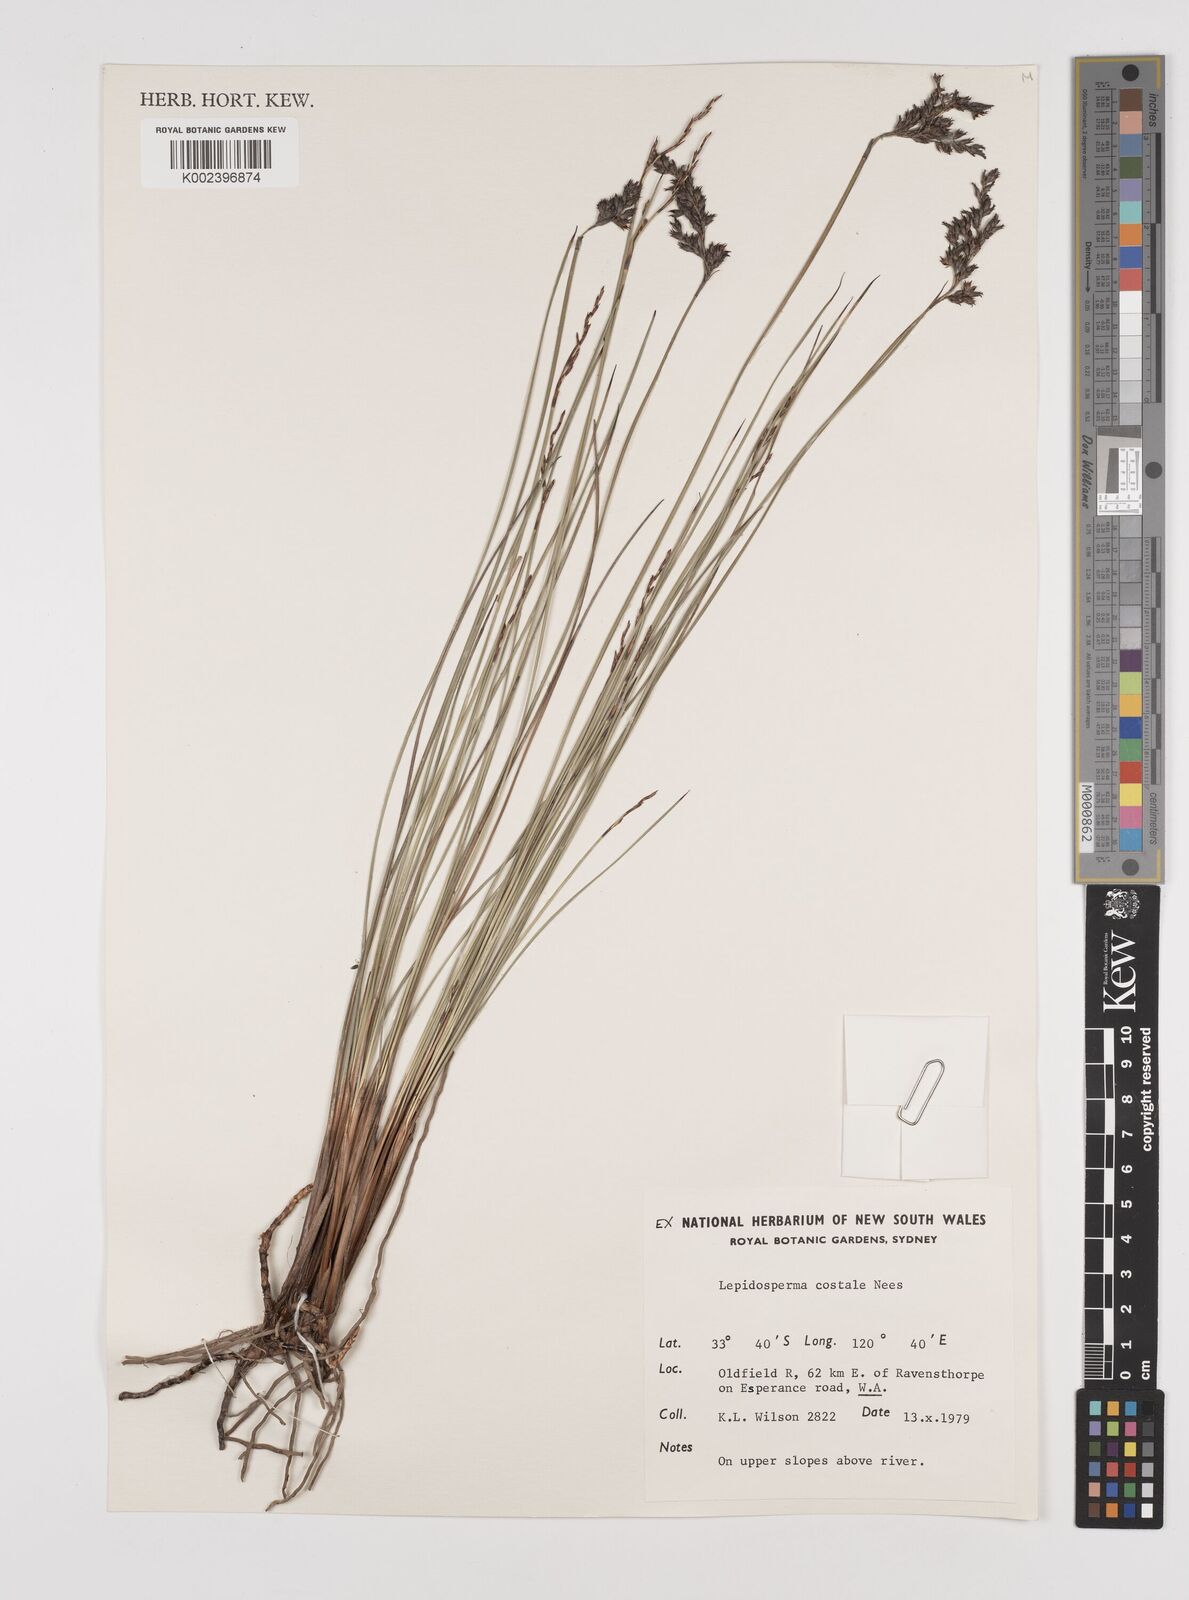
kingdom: Plantae
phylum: Tracheophyta
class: Liliopsida
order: Poales
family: Cyperaceae
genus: Lepidosperma
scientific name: Lepidosperma costale
